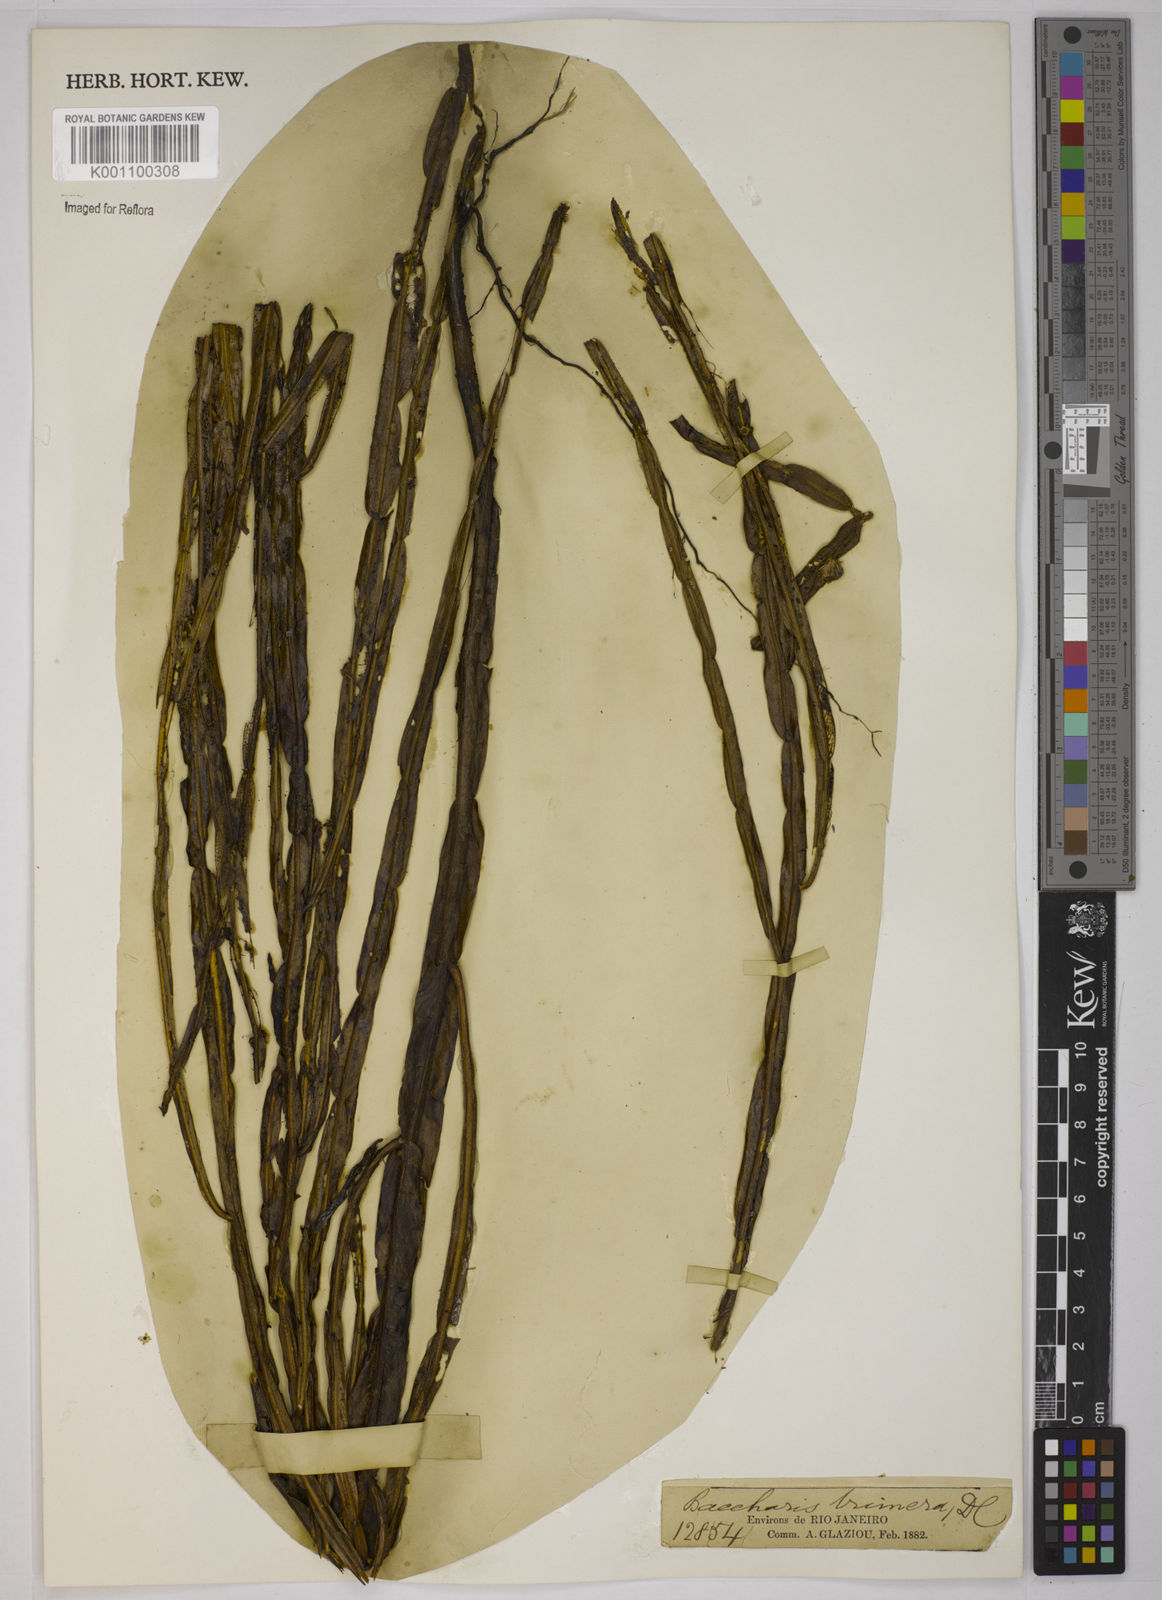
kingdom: Plantae
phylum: Tracheophyta
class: Magnoliopsida
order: Asterales
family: Asteraceae
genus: Baccharis
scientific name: Baccharis trimera
